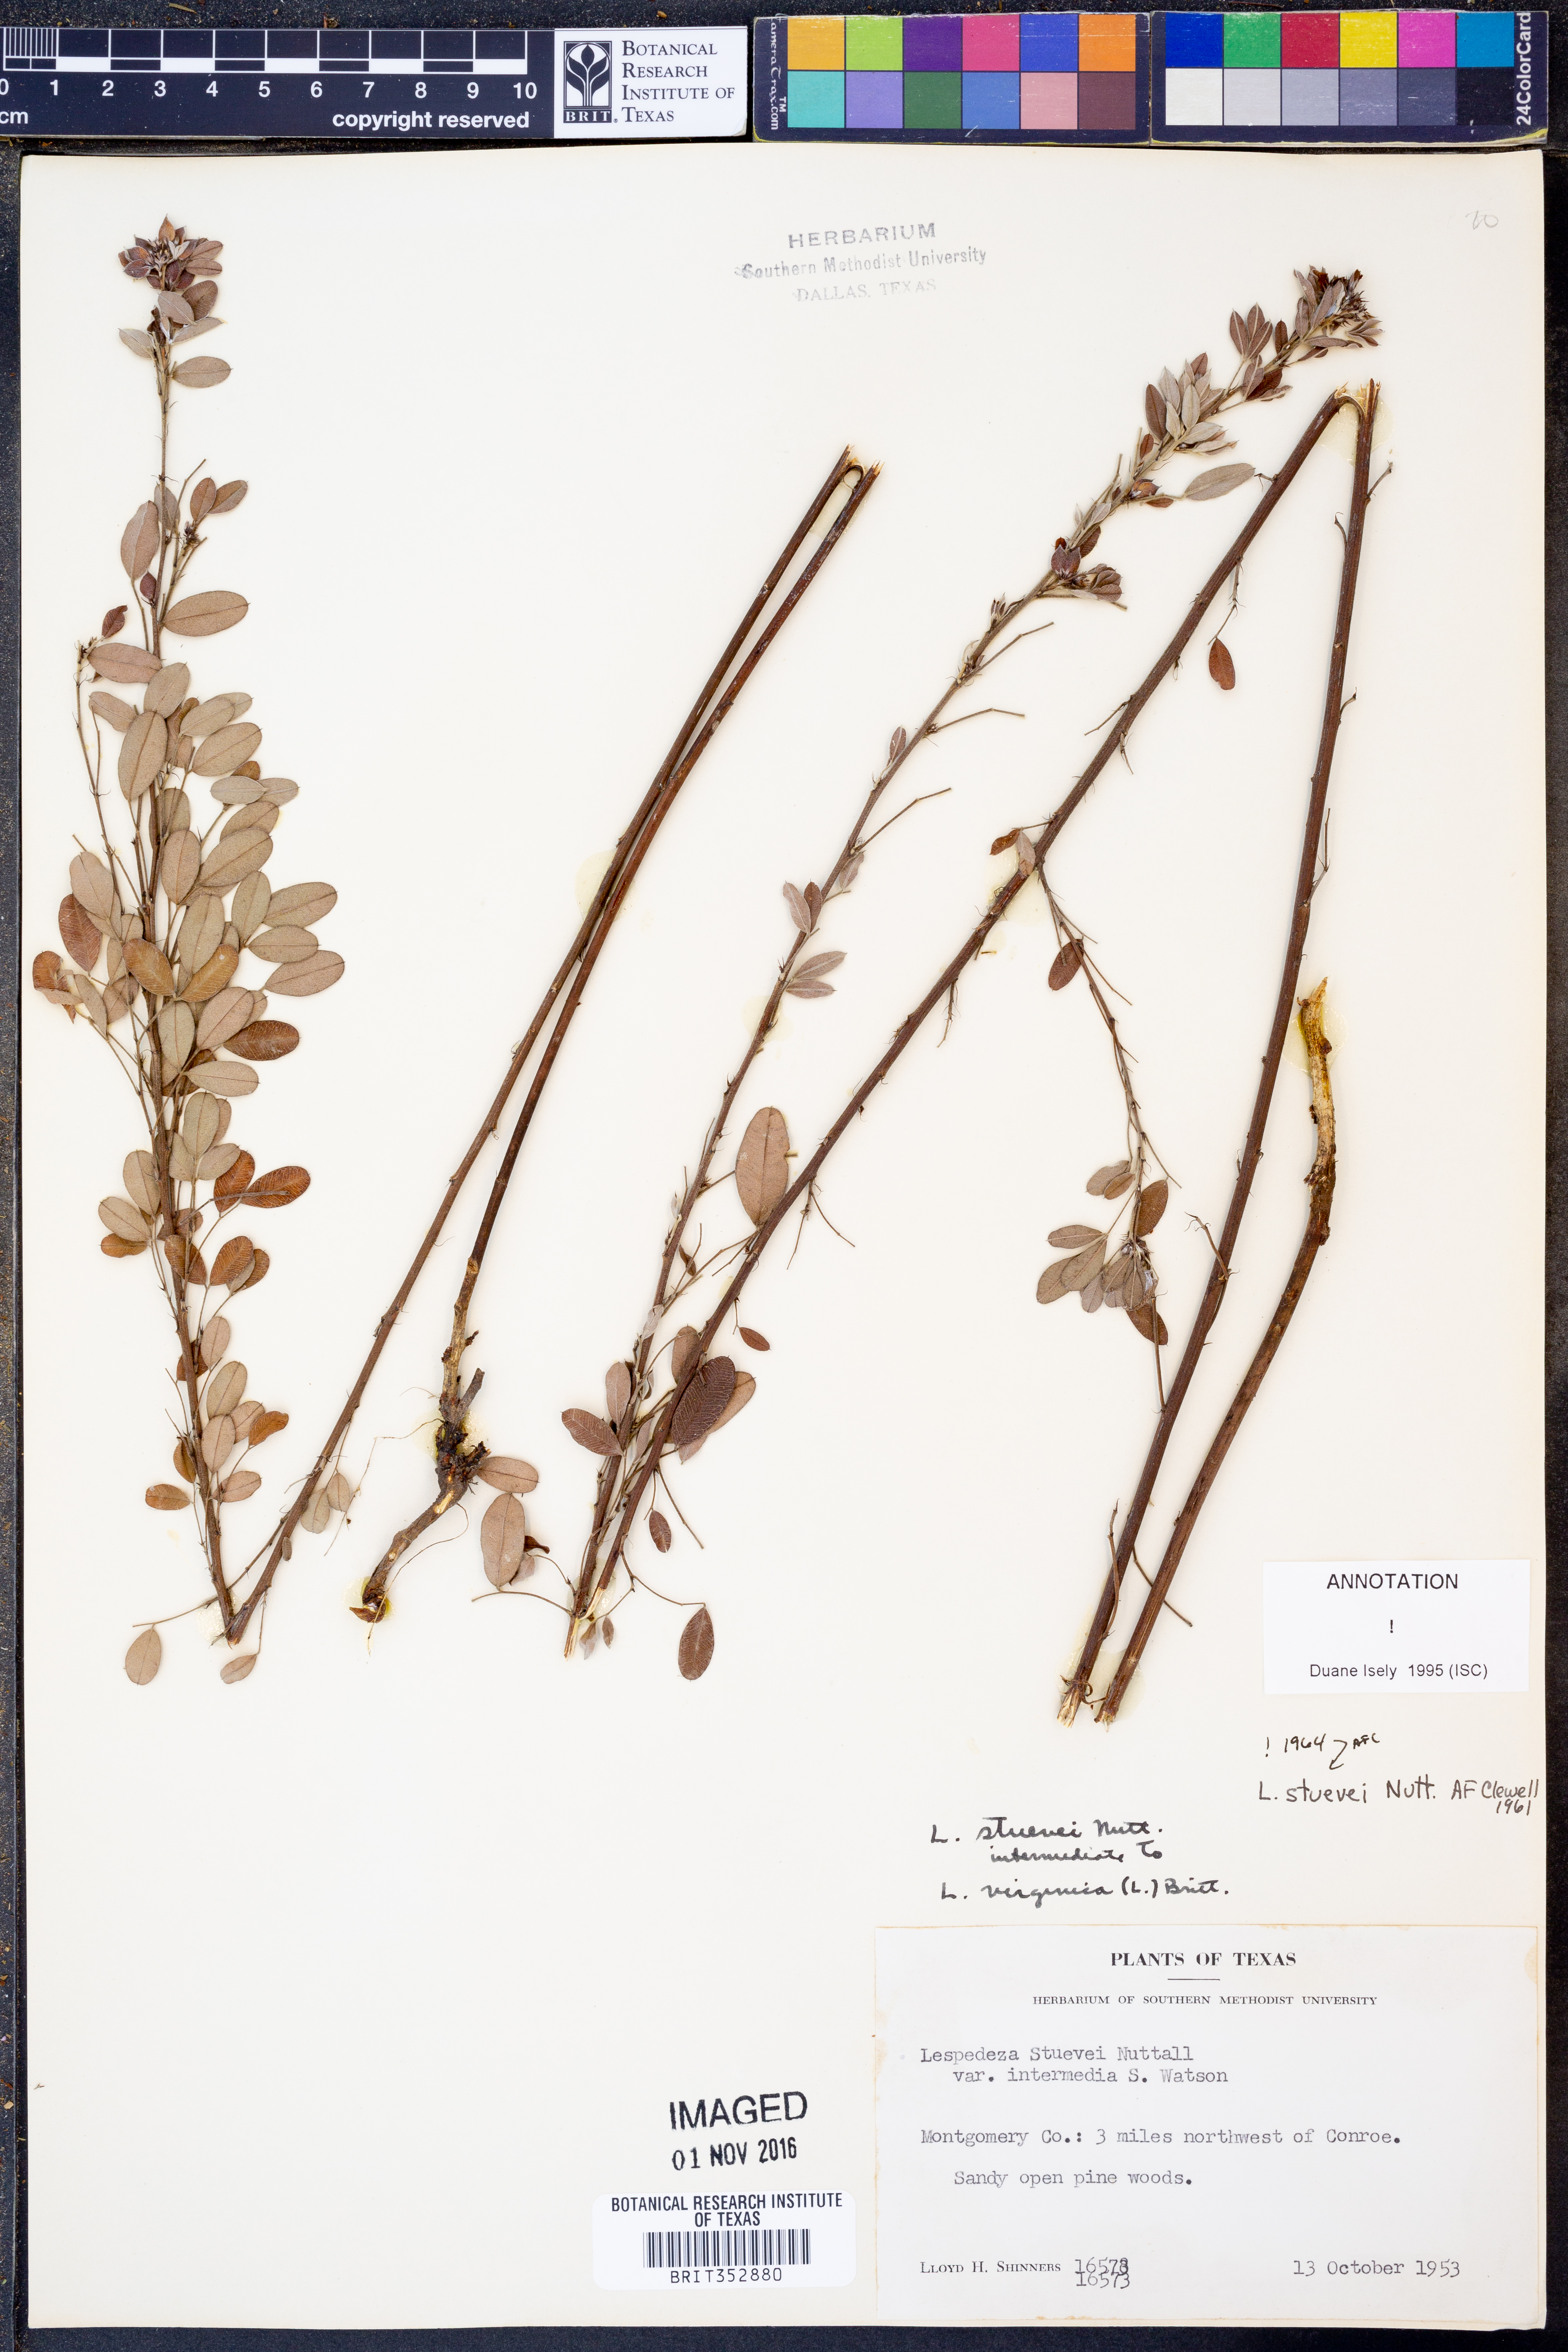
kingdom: Plantae
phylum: Tracheophyta
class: Magnoliopsida
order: Fabales
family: Fabaceae
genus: Lespedeza
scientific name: Lespedeza stuevei
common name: Tall bush-clover
